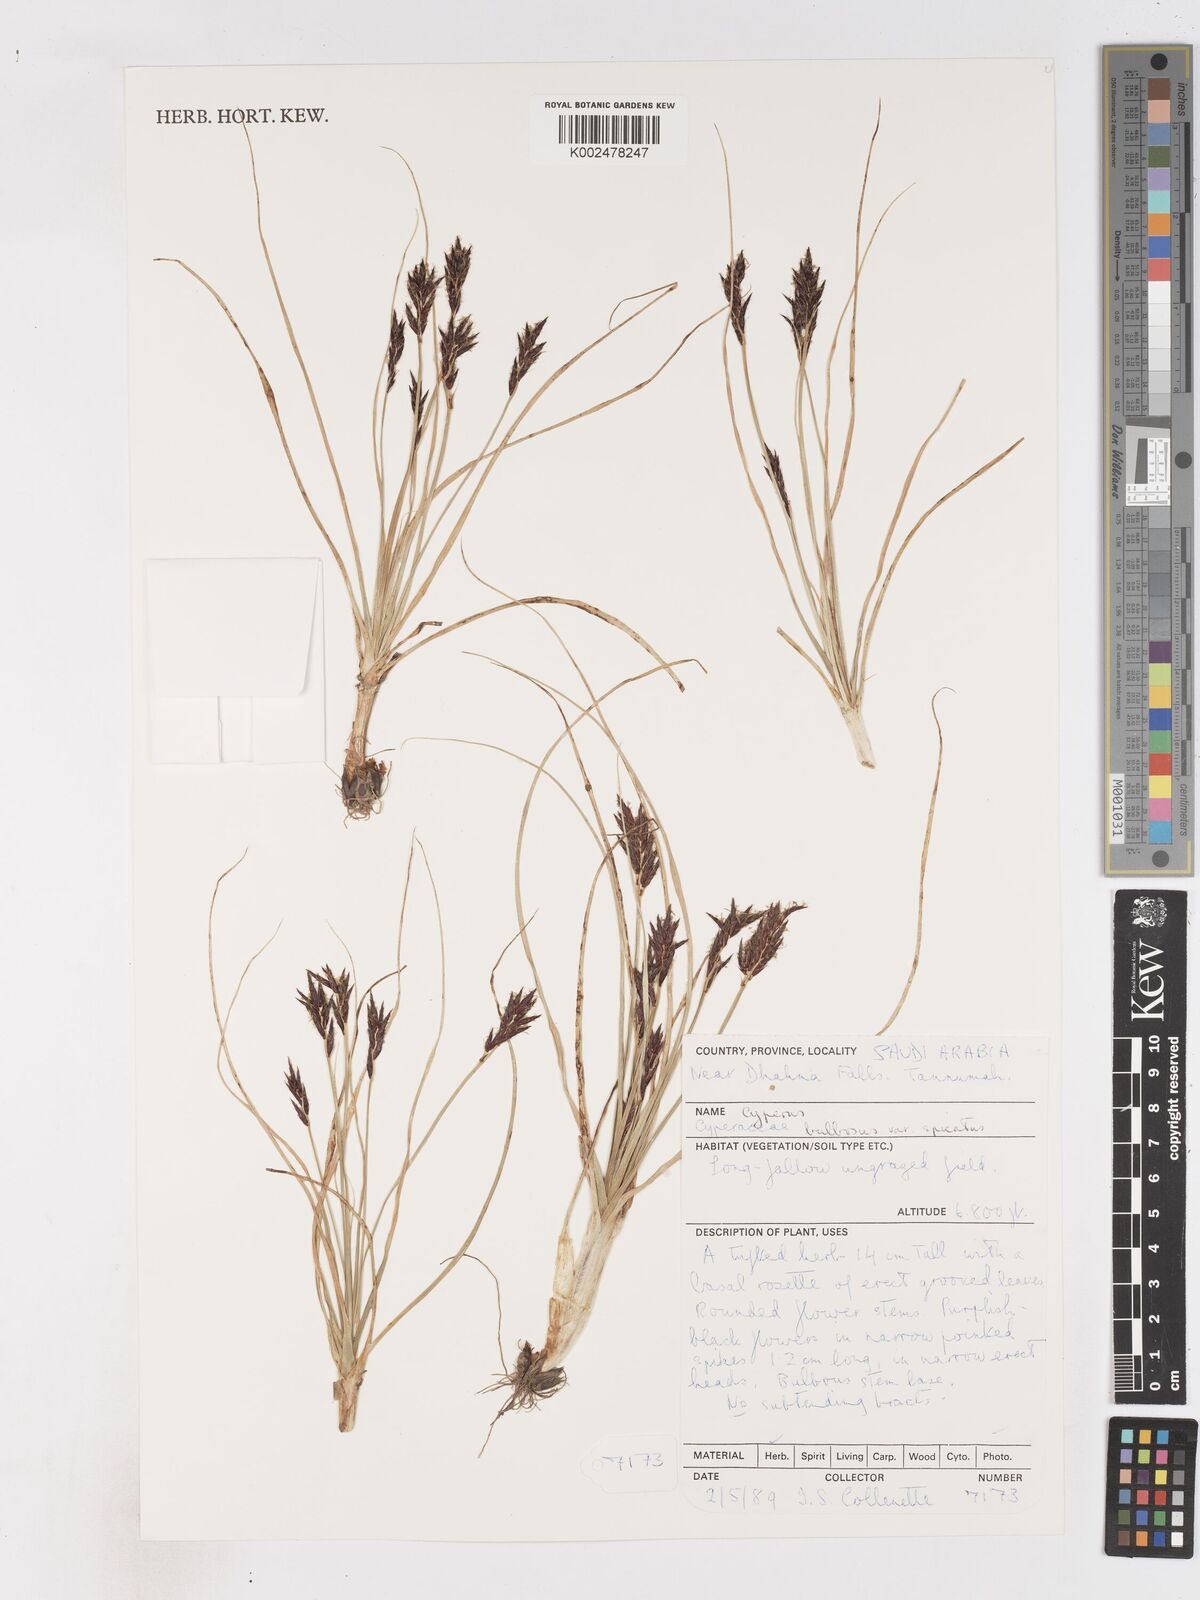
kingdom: Plantae
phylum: Tracheophyta
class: Liliopsida
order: Poales
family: Cyperaceae
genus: Cyperus
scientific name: Cyperus bulbosus
